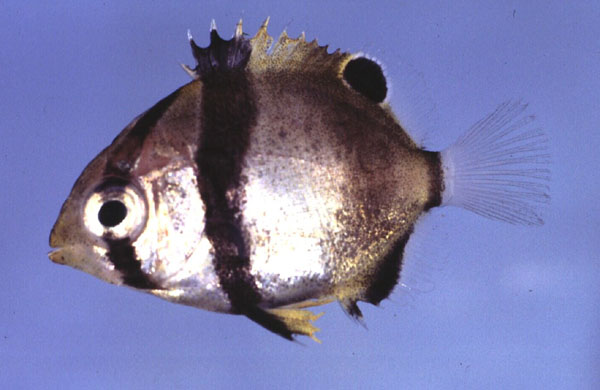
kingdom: Animalia
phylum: Chordata
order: Perciformes
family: Chaetodontidae
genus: Chaetodon
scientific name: Chaetodon marleyi
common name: Doubledash butterflyfish
